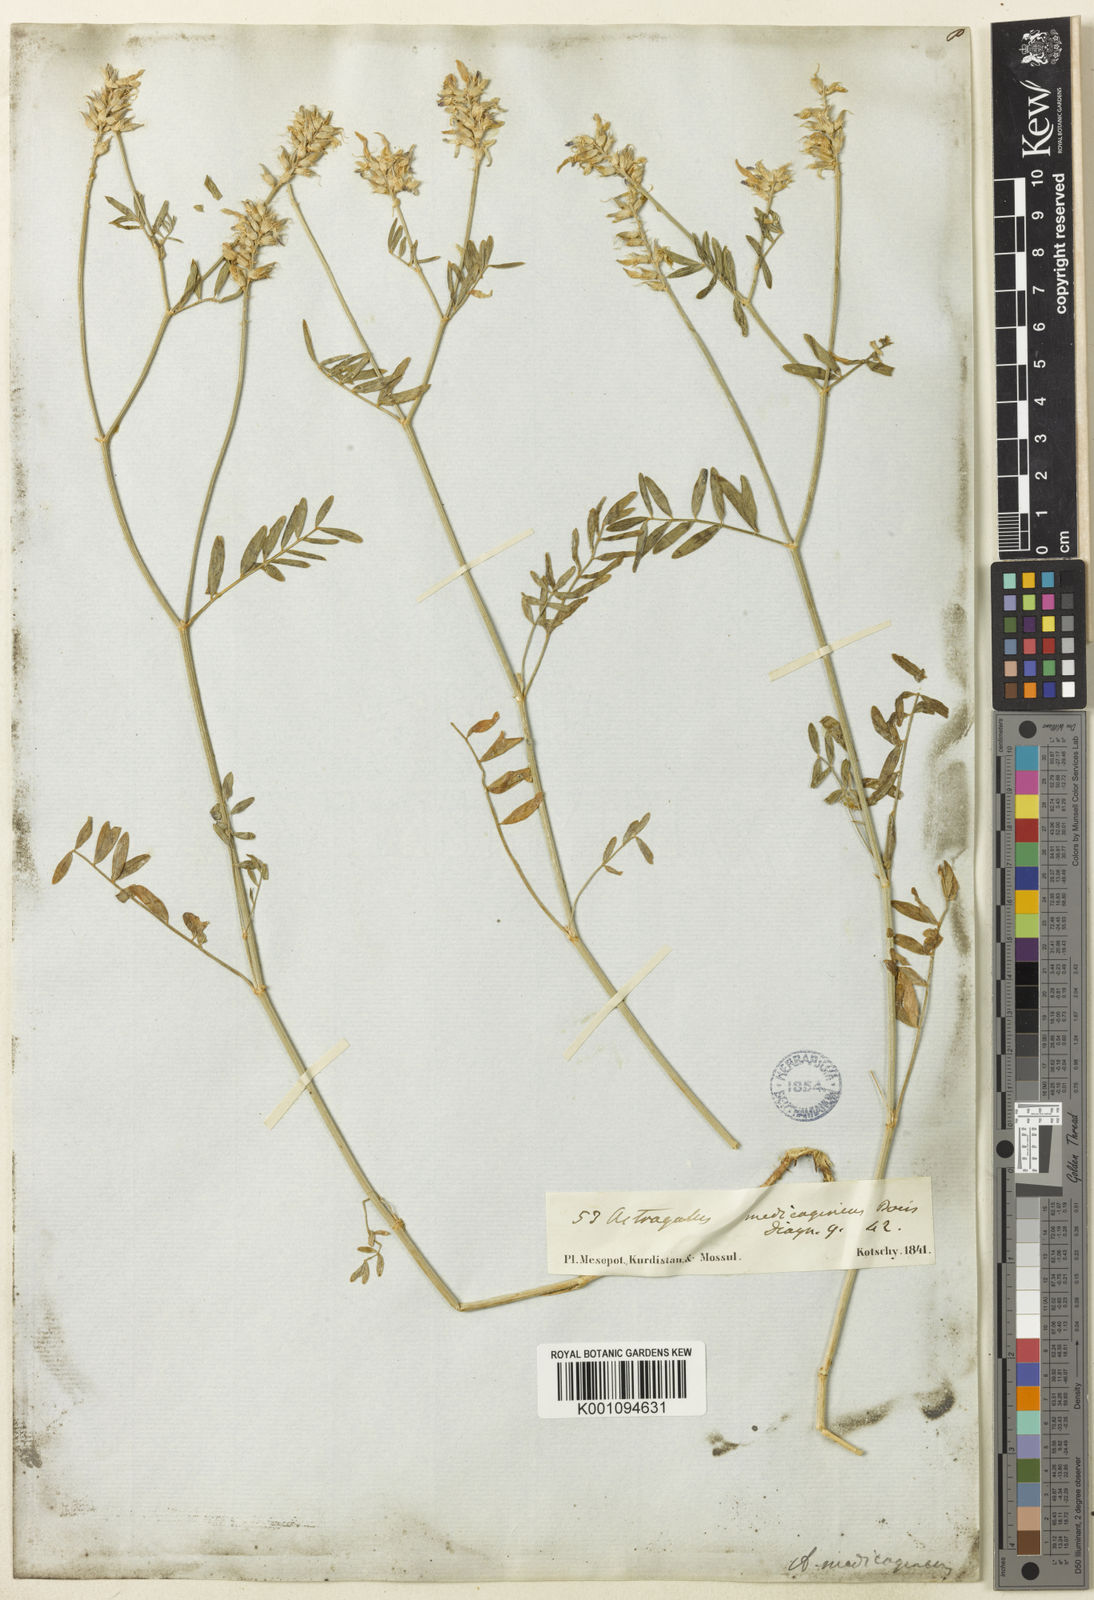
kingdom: Plantae
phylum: Tracheophyta
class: Magnoliopsida
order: Fabales
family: Fabaceae
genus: Astragalus
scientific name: Astragalus
